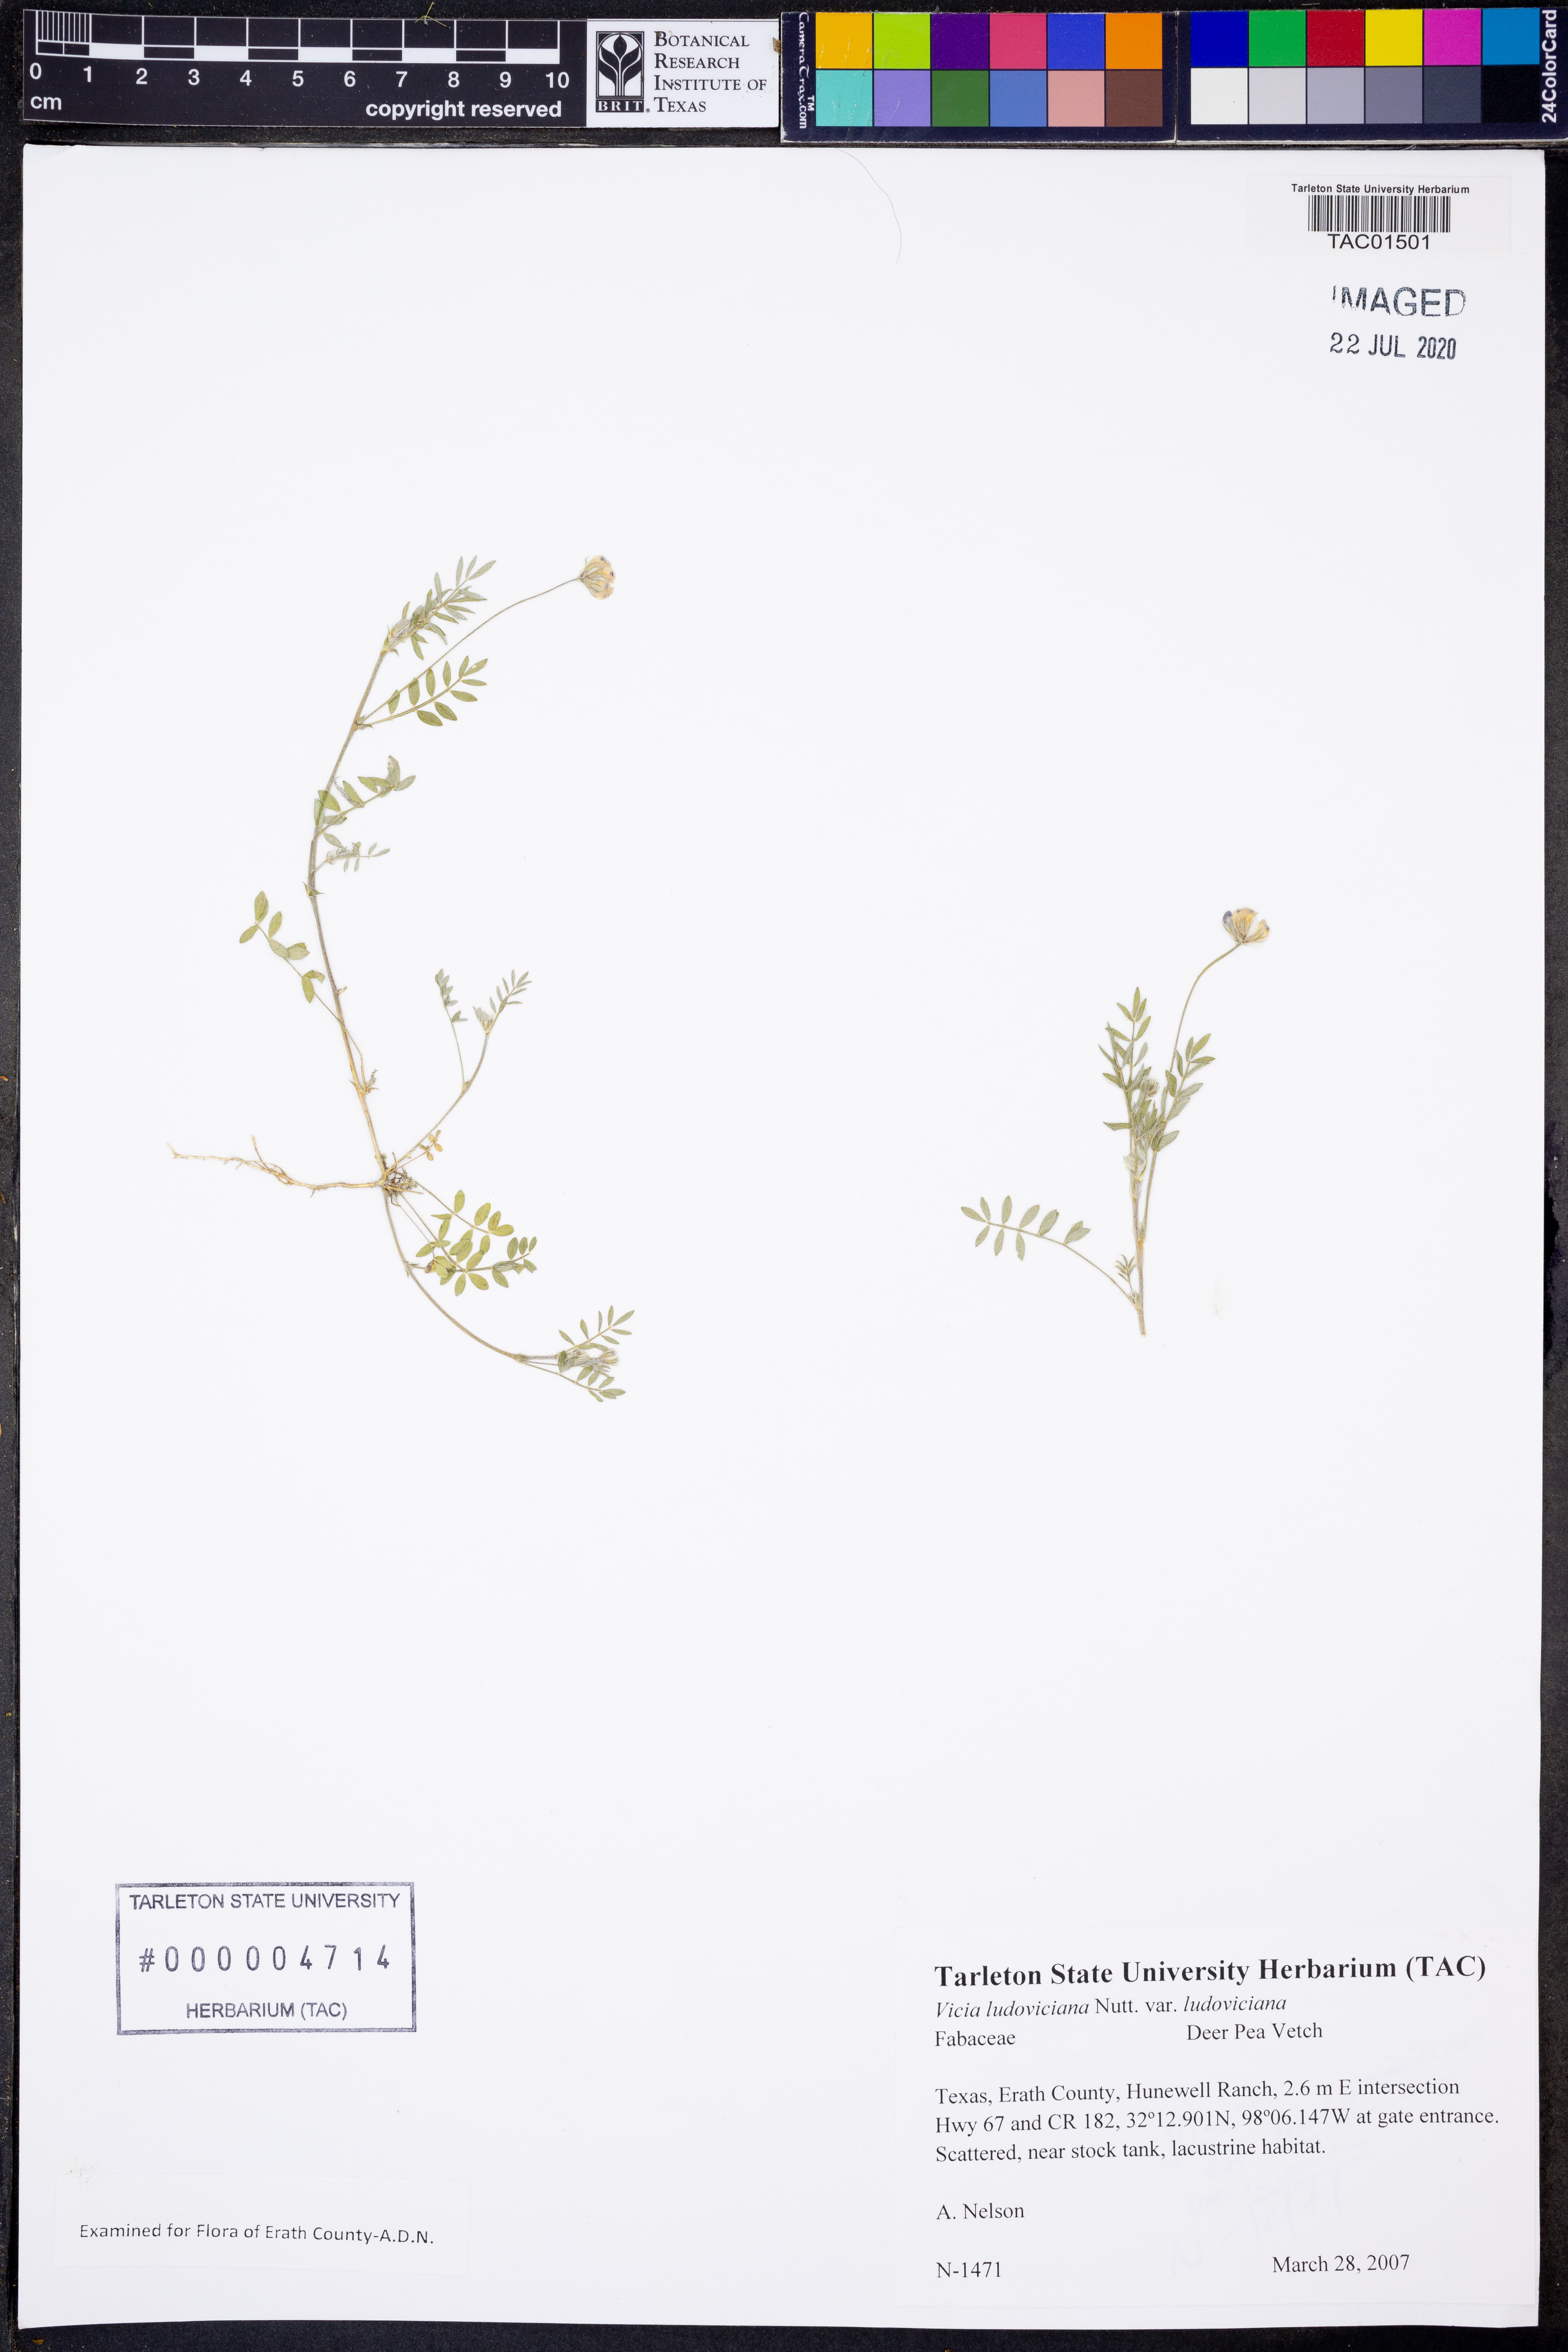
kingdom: Plantae
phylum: Tracheophyta
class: Magnoliopsida
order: Fabales
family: Fabaceae
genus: Vicia
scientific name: Vicia ludoviciana
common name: Louisiana vetch
